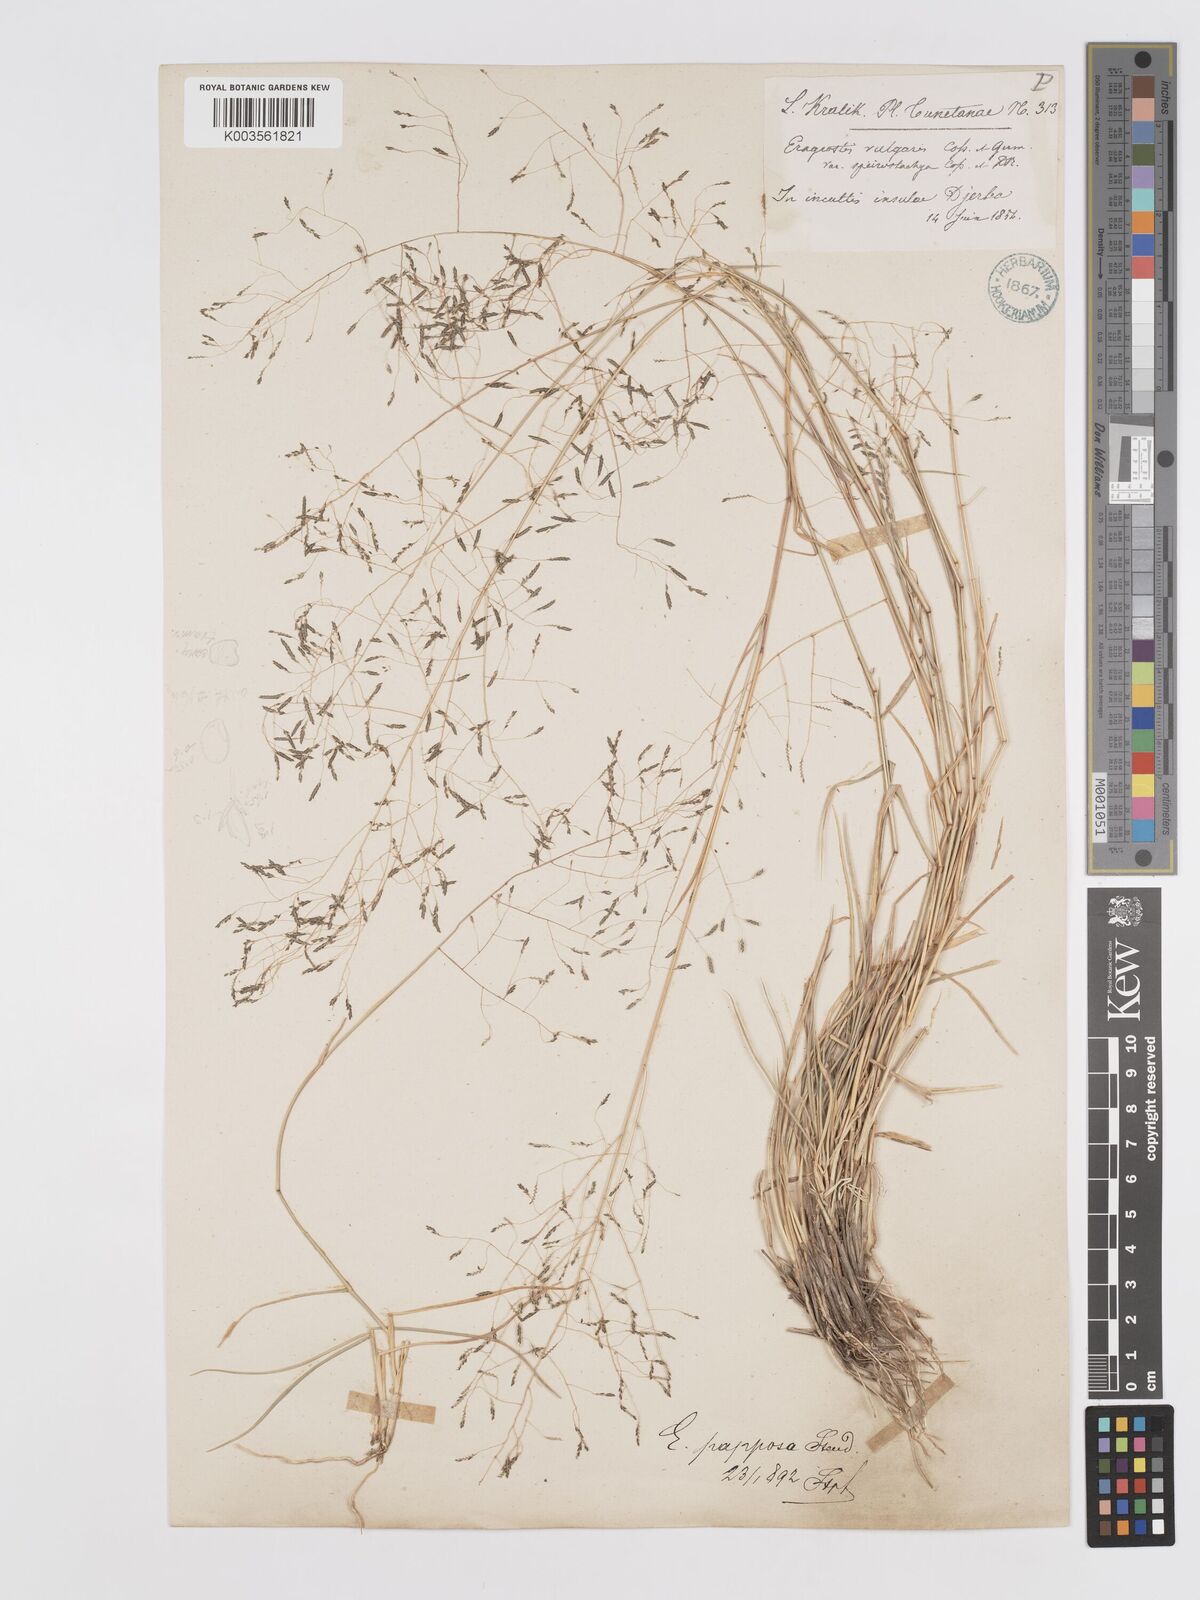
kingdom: Plantae
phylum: Tracheophyta
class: Liliopsida
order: Poales
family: Poaceae
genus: Eragrostis
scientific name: Eragrostis papposa
